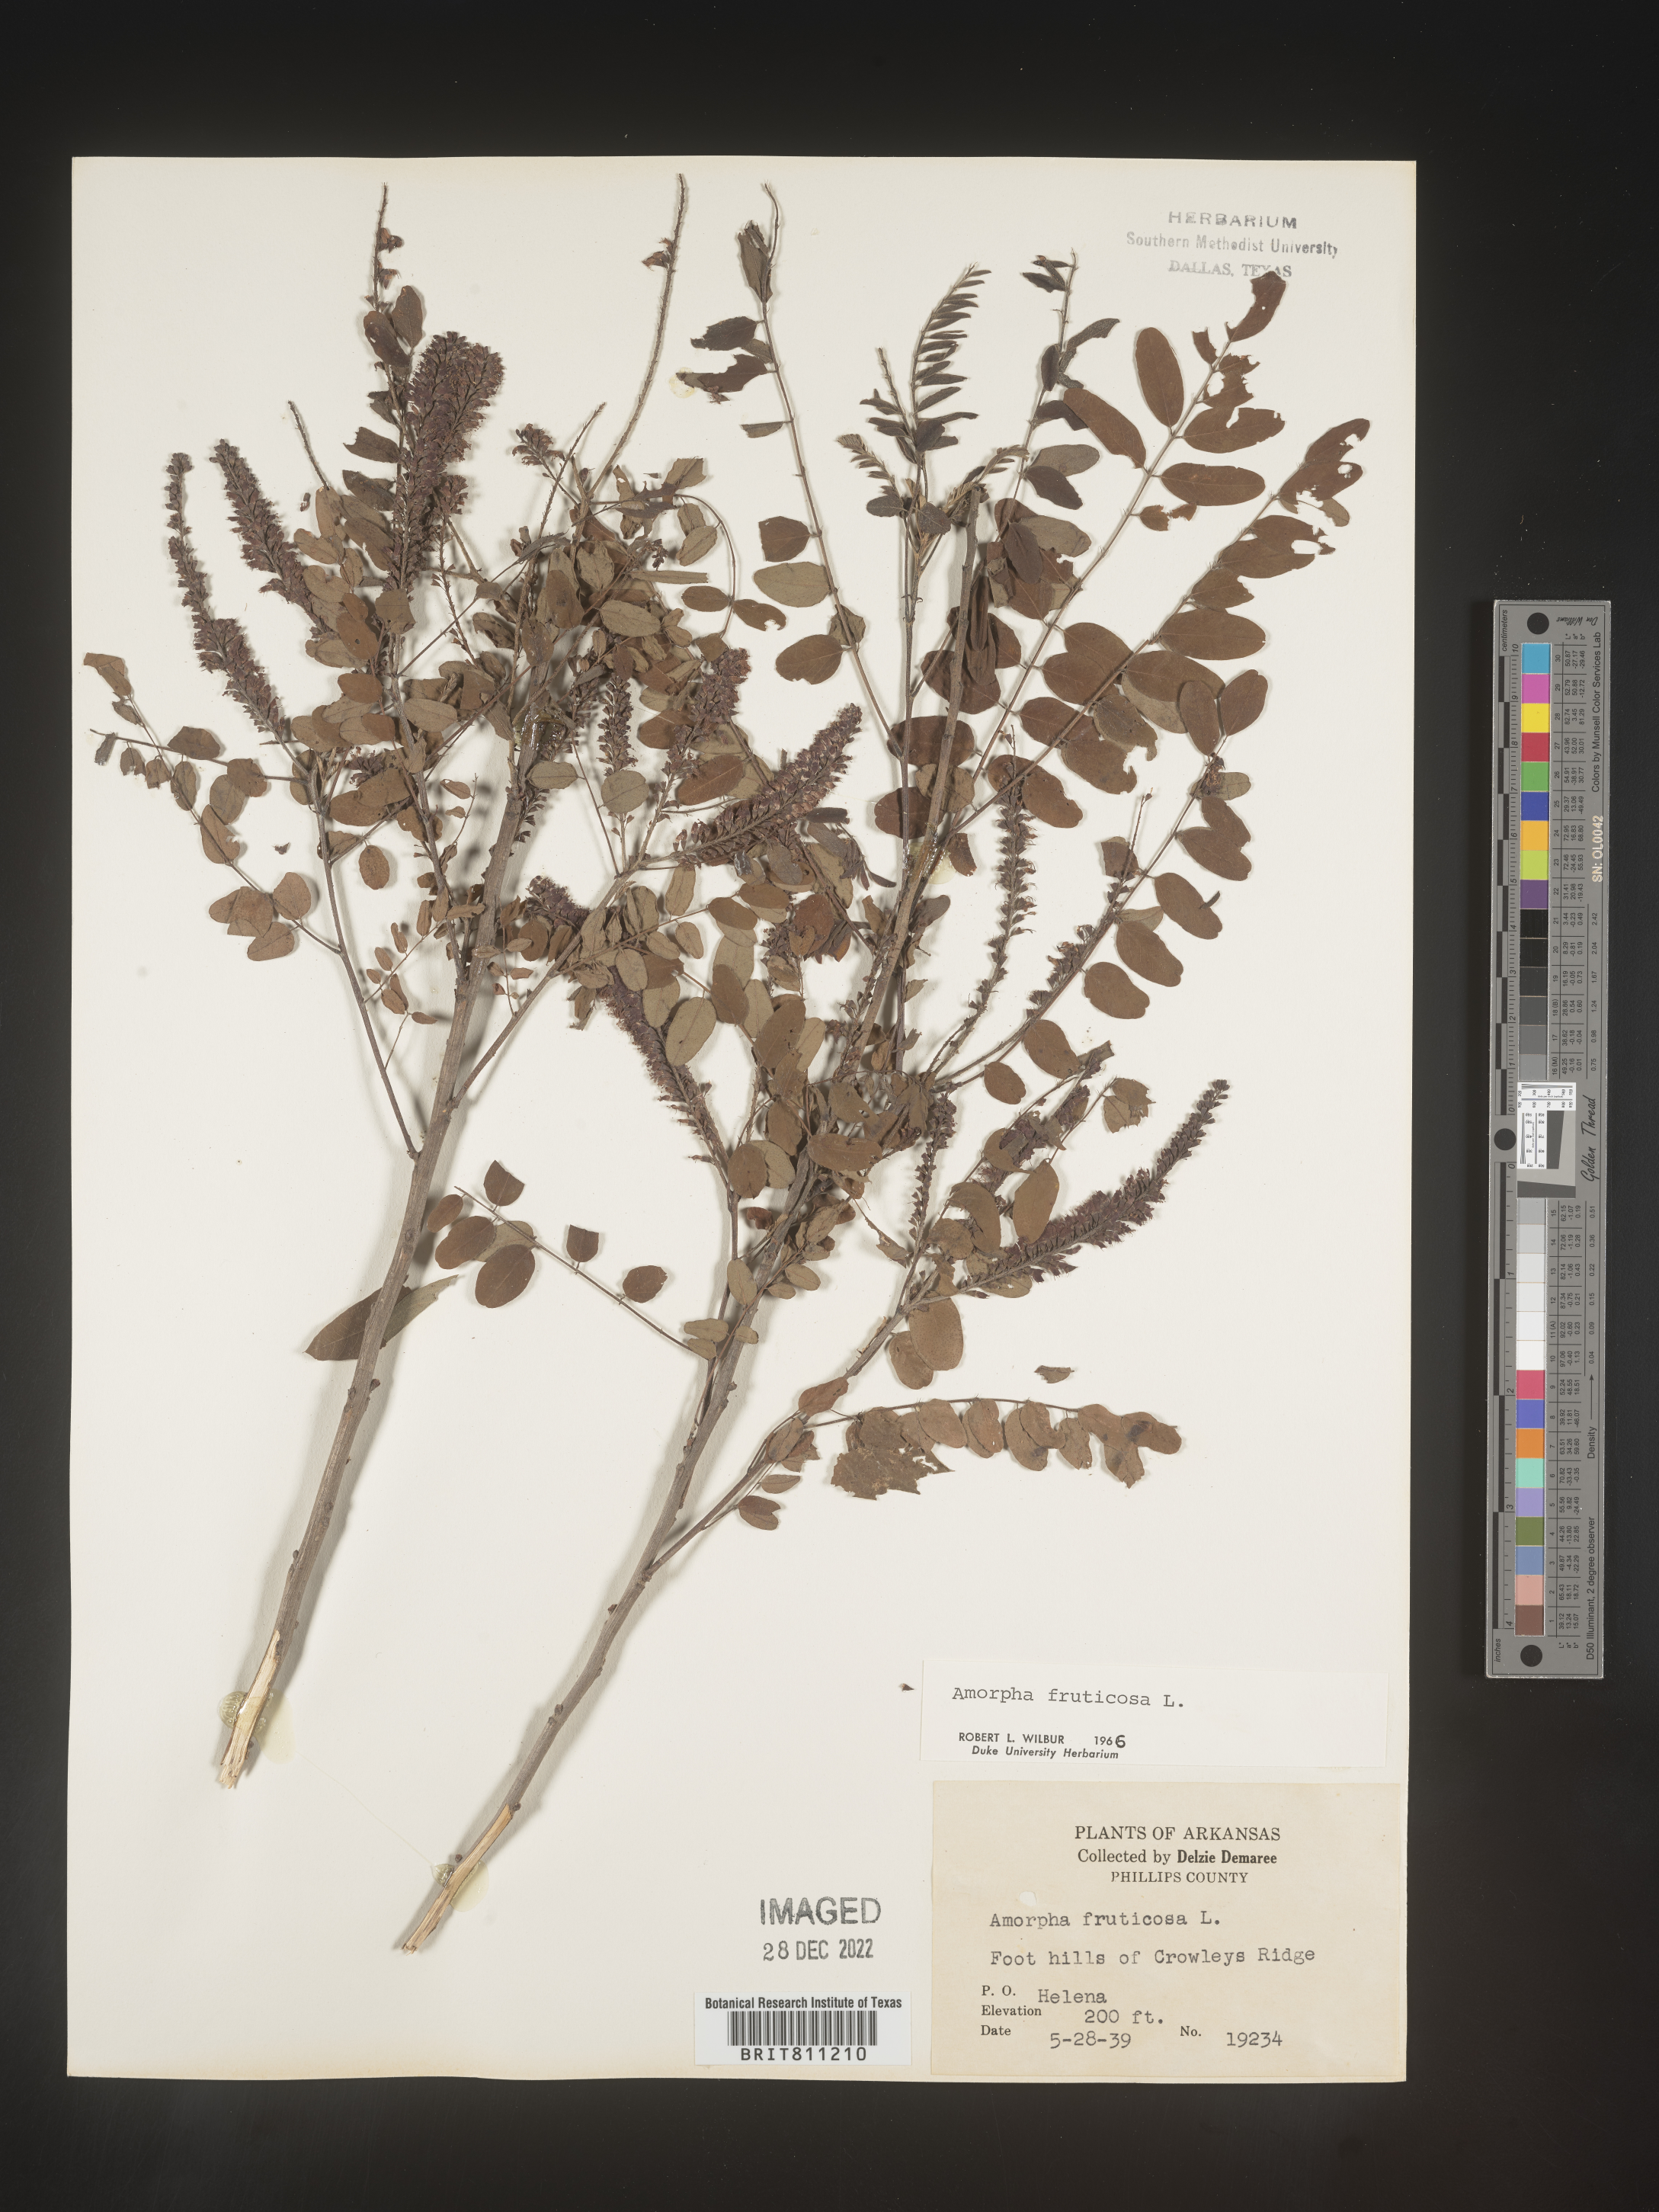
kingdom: Plantae
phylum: Tracheophyta
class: Magnoliopsida
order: Fabales
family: Fabaceae
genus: Amorpha
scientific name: Amorpha fruticosa
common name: False indigo
